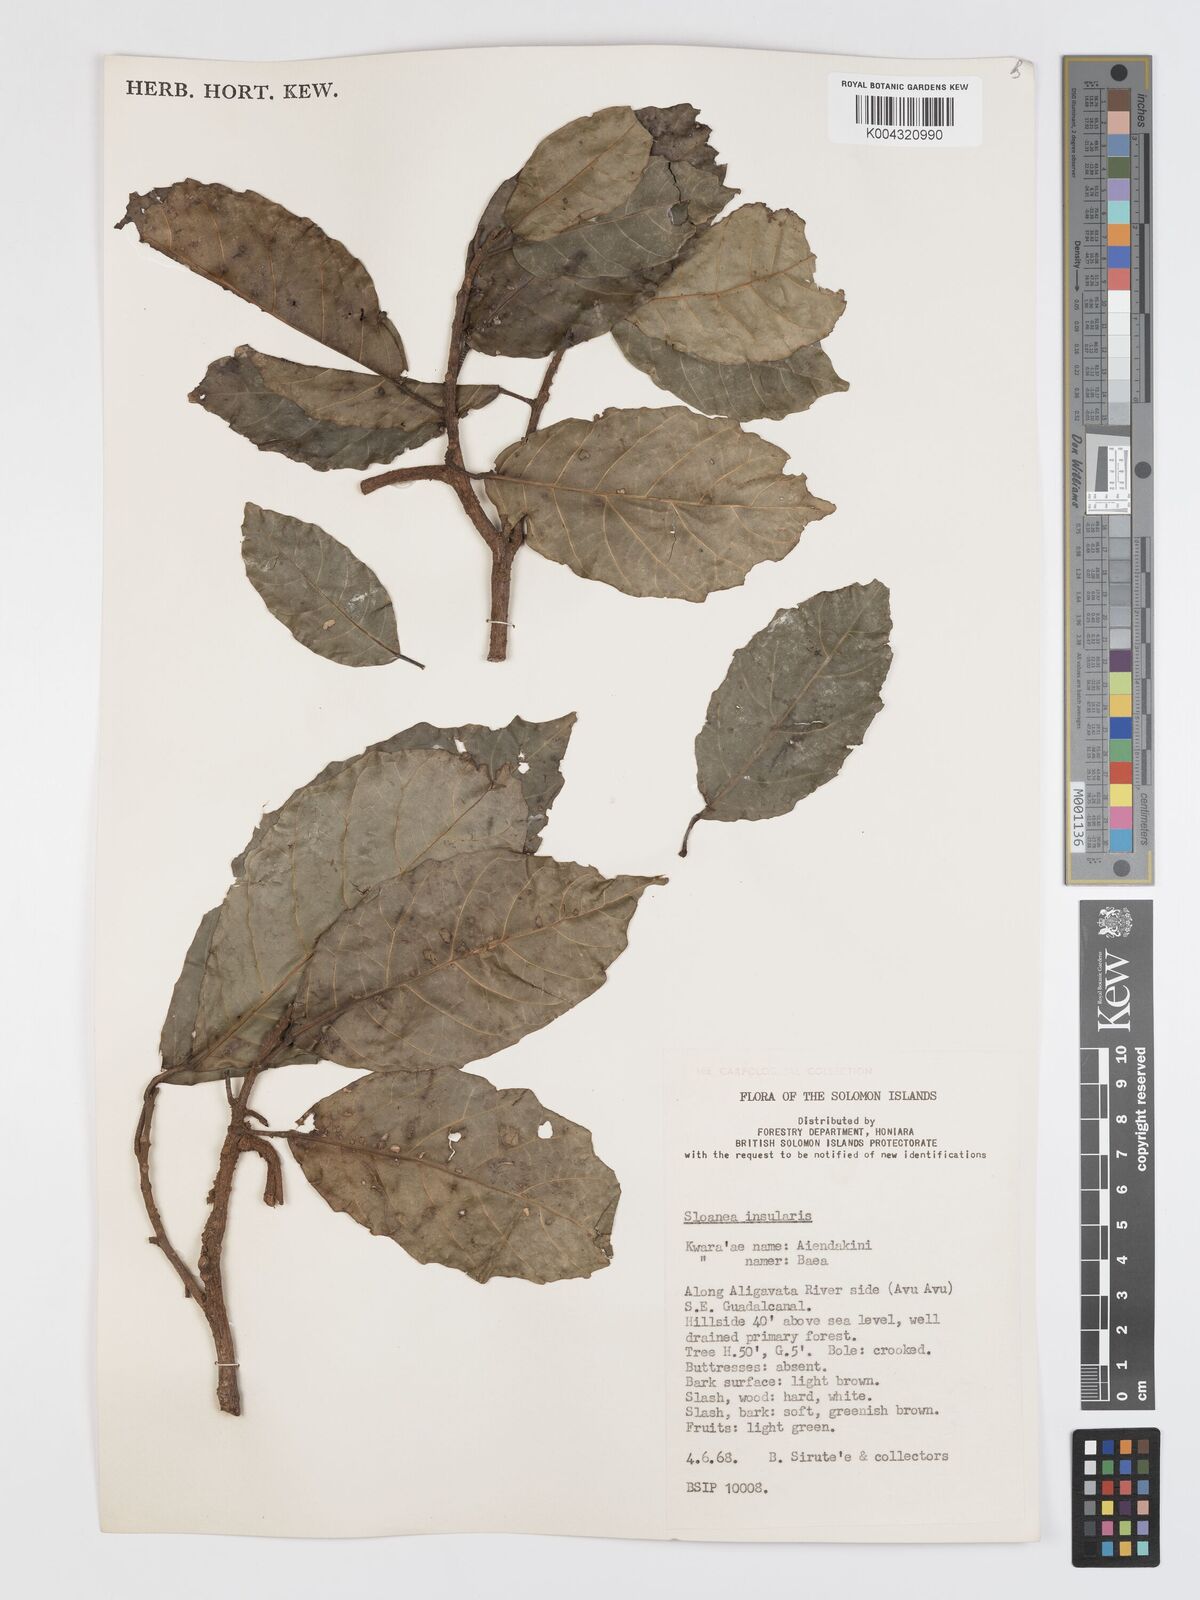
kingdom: Plantae
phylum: Tracheophyta
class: Magnoliopsida
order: Oxalidales
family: Elaeocarpaceae
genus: Sloanea
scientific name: Sloanea insularis
